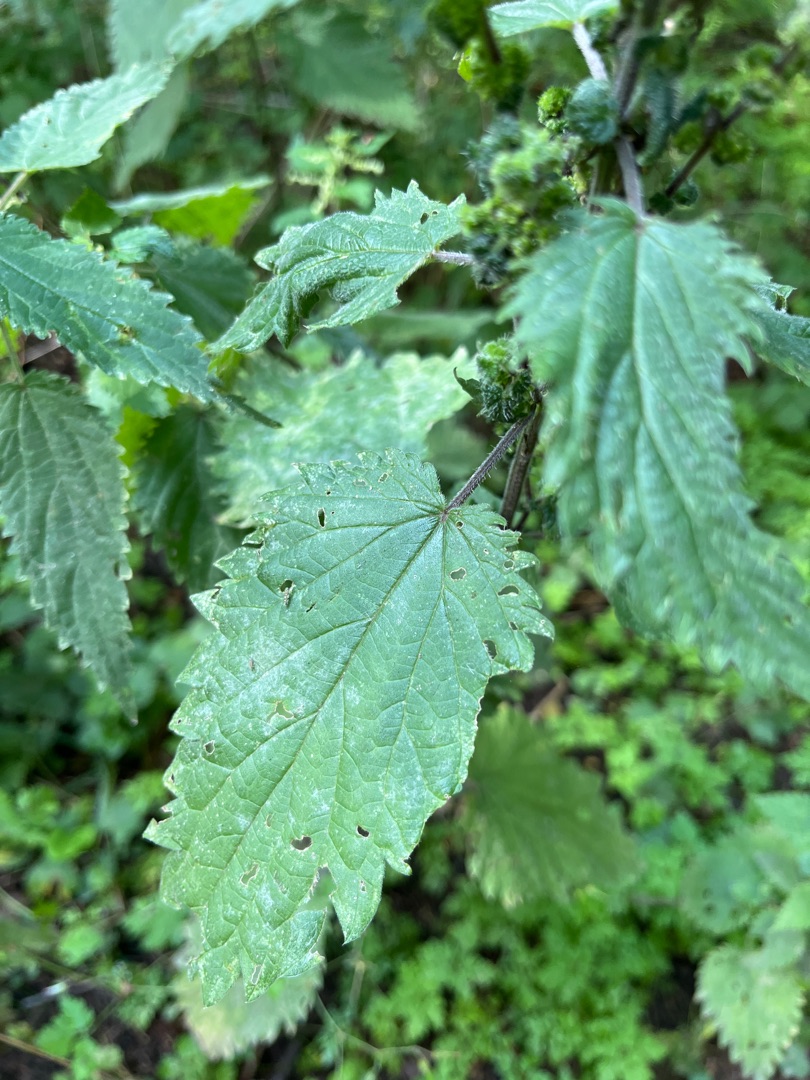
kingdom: Plantae
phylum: Tracheophyta
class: Magnoliopsida
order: Rosales
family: Urticaceae
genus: Urtica
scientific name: Urtica dioica
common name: Stor nælde
